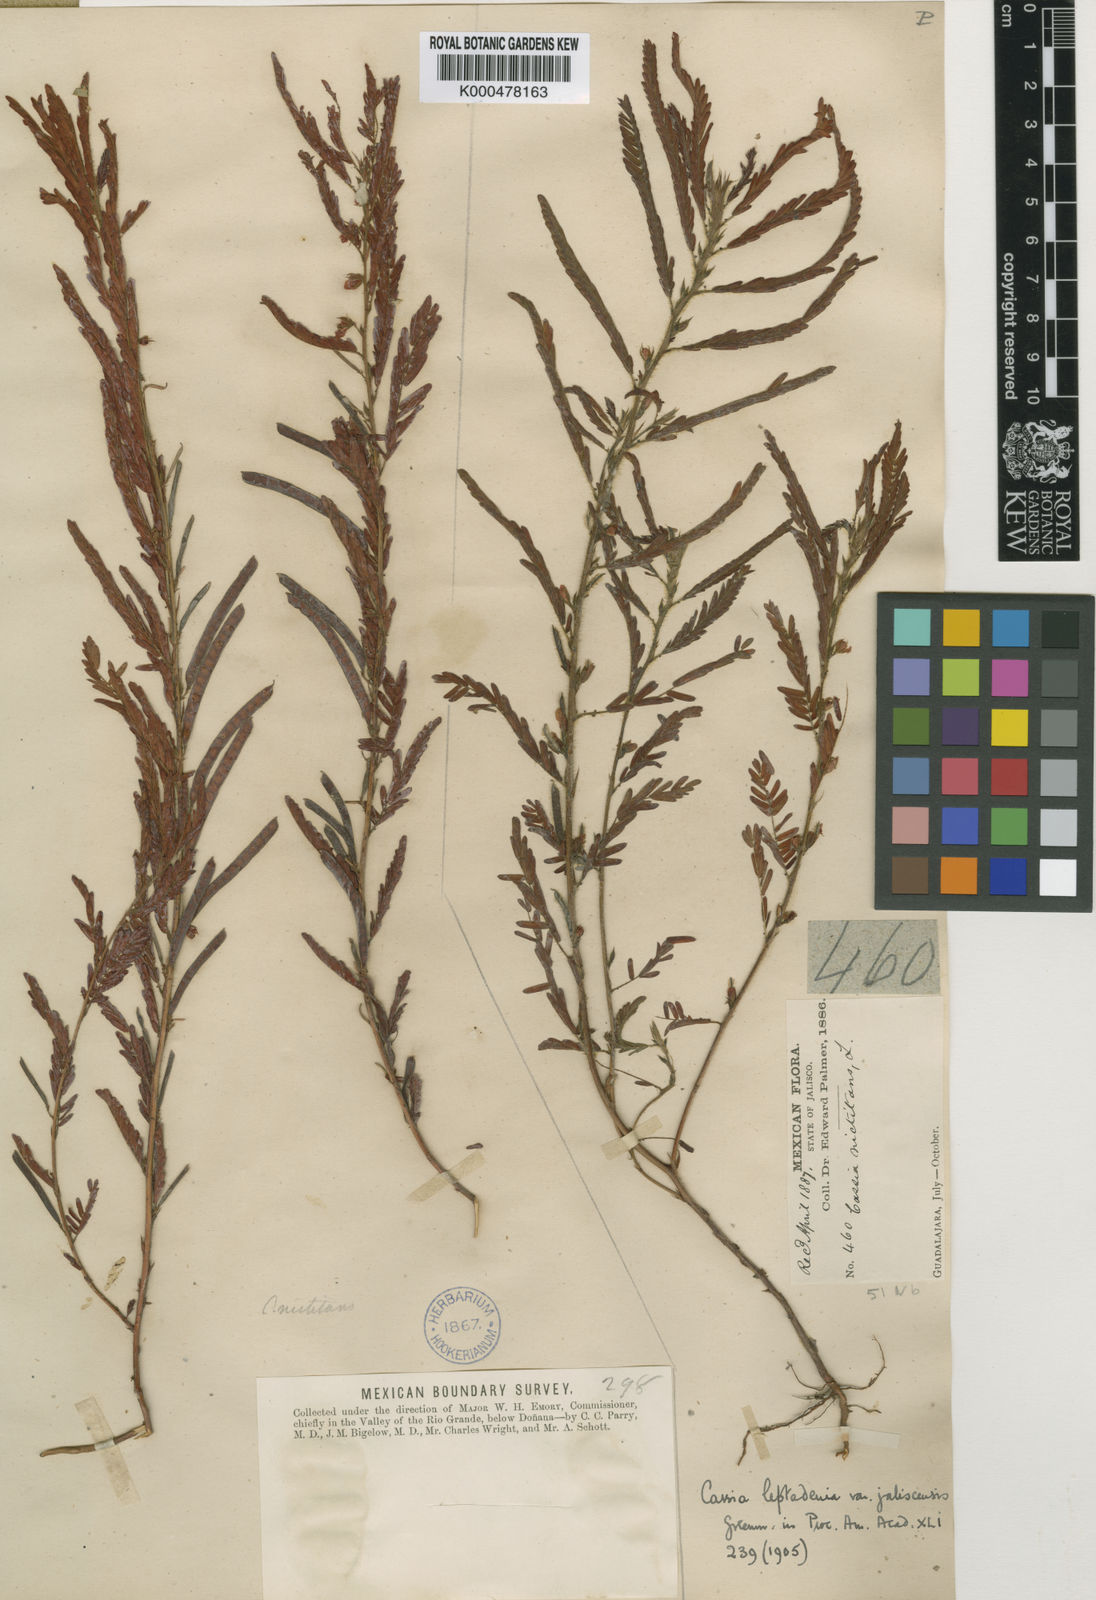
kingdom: Plantae
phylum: Tracheophyta
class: Magnoliopsida
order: Fabales
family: Fabaceae
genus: Chamaecrista
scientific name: Chamaecrista nictitans
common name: Sensitive cassia
